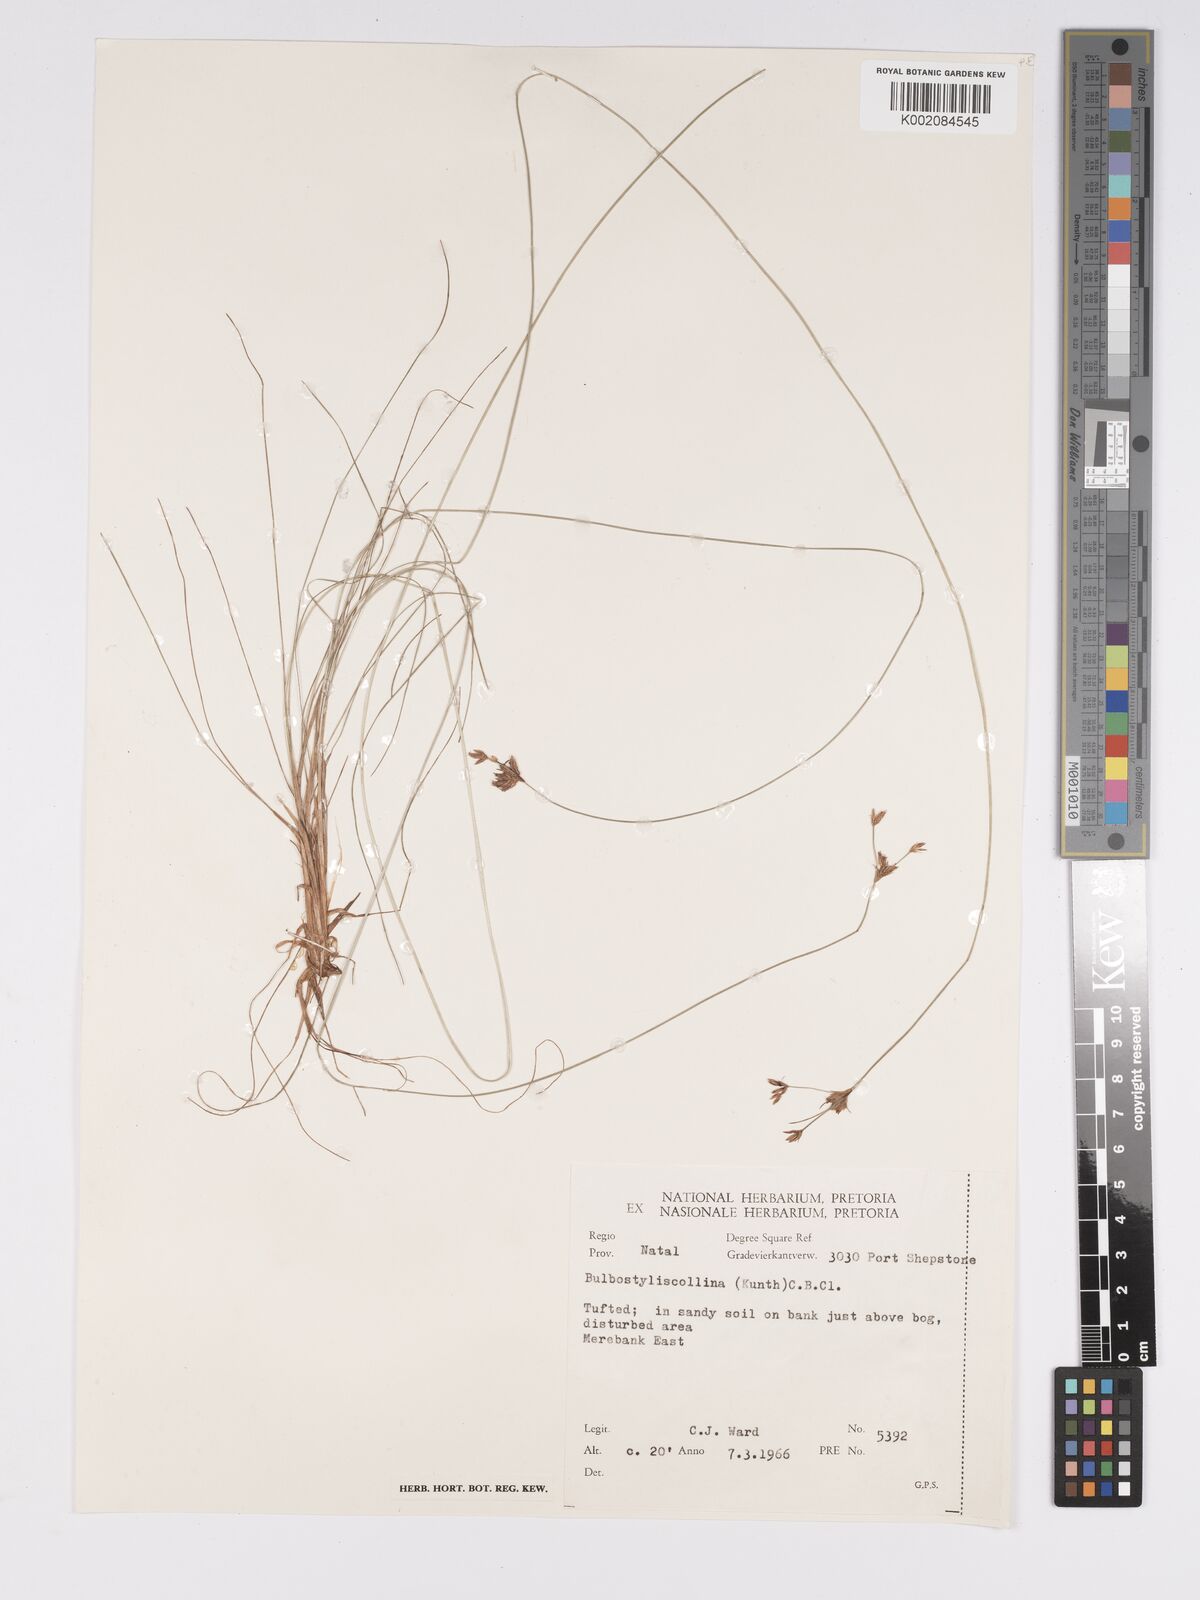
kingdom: Plantae
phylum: Tracheophyta
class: Liliopsida
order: Poales
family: Cyperaceae
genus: Bulbostylis
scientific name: Bulbostylis contexta
